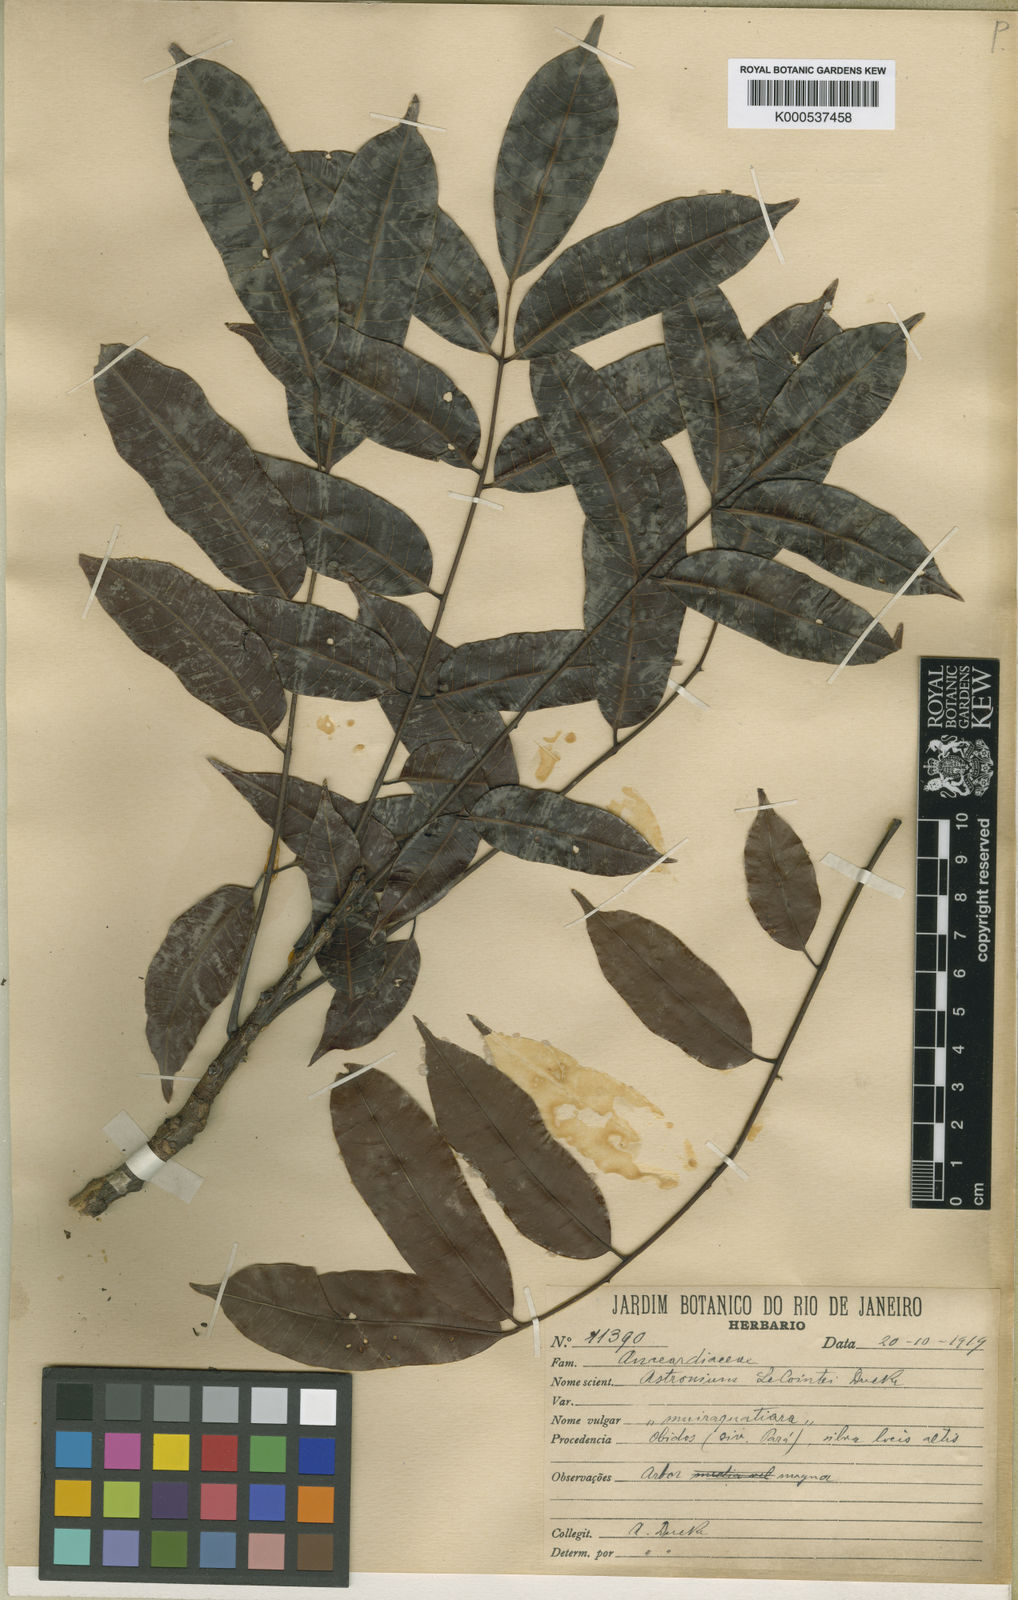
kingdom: Plantae
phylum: Tracheophyta
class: Magnoliopsida
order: Sapindales
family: Anacardiaceae
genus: Astronium
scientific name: Astronium lecointei
